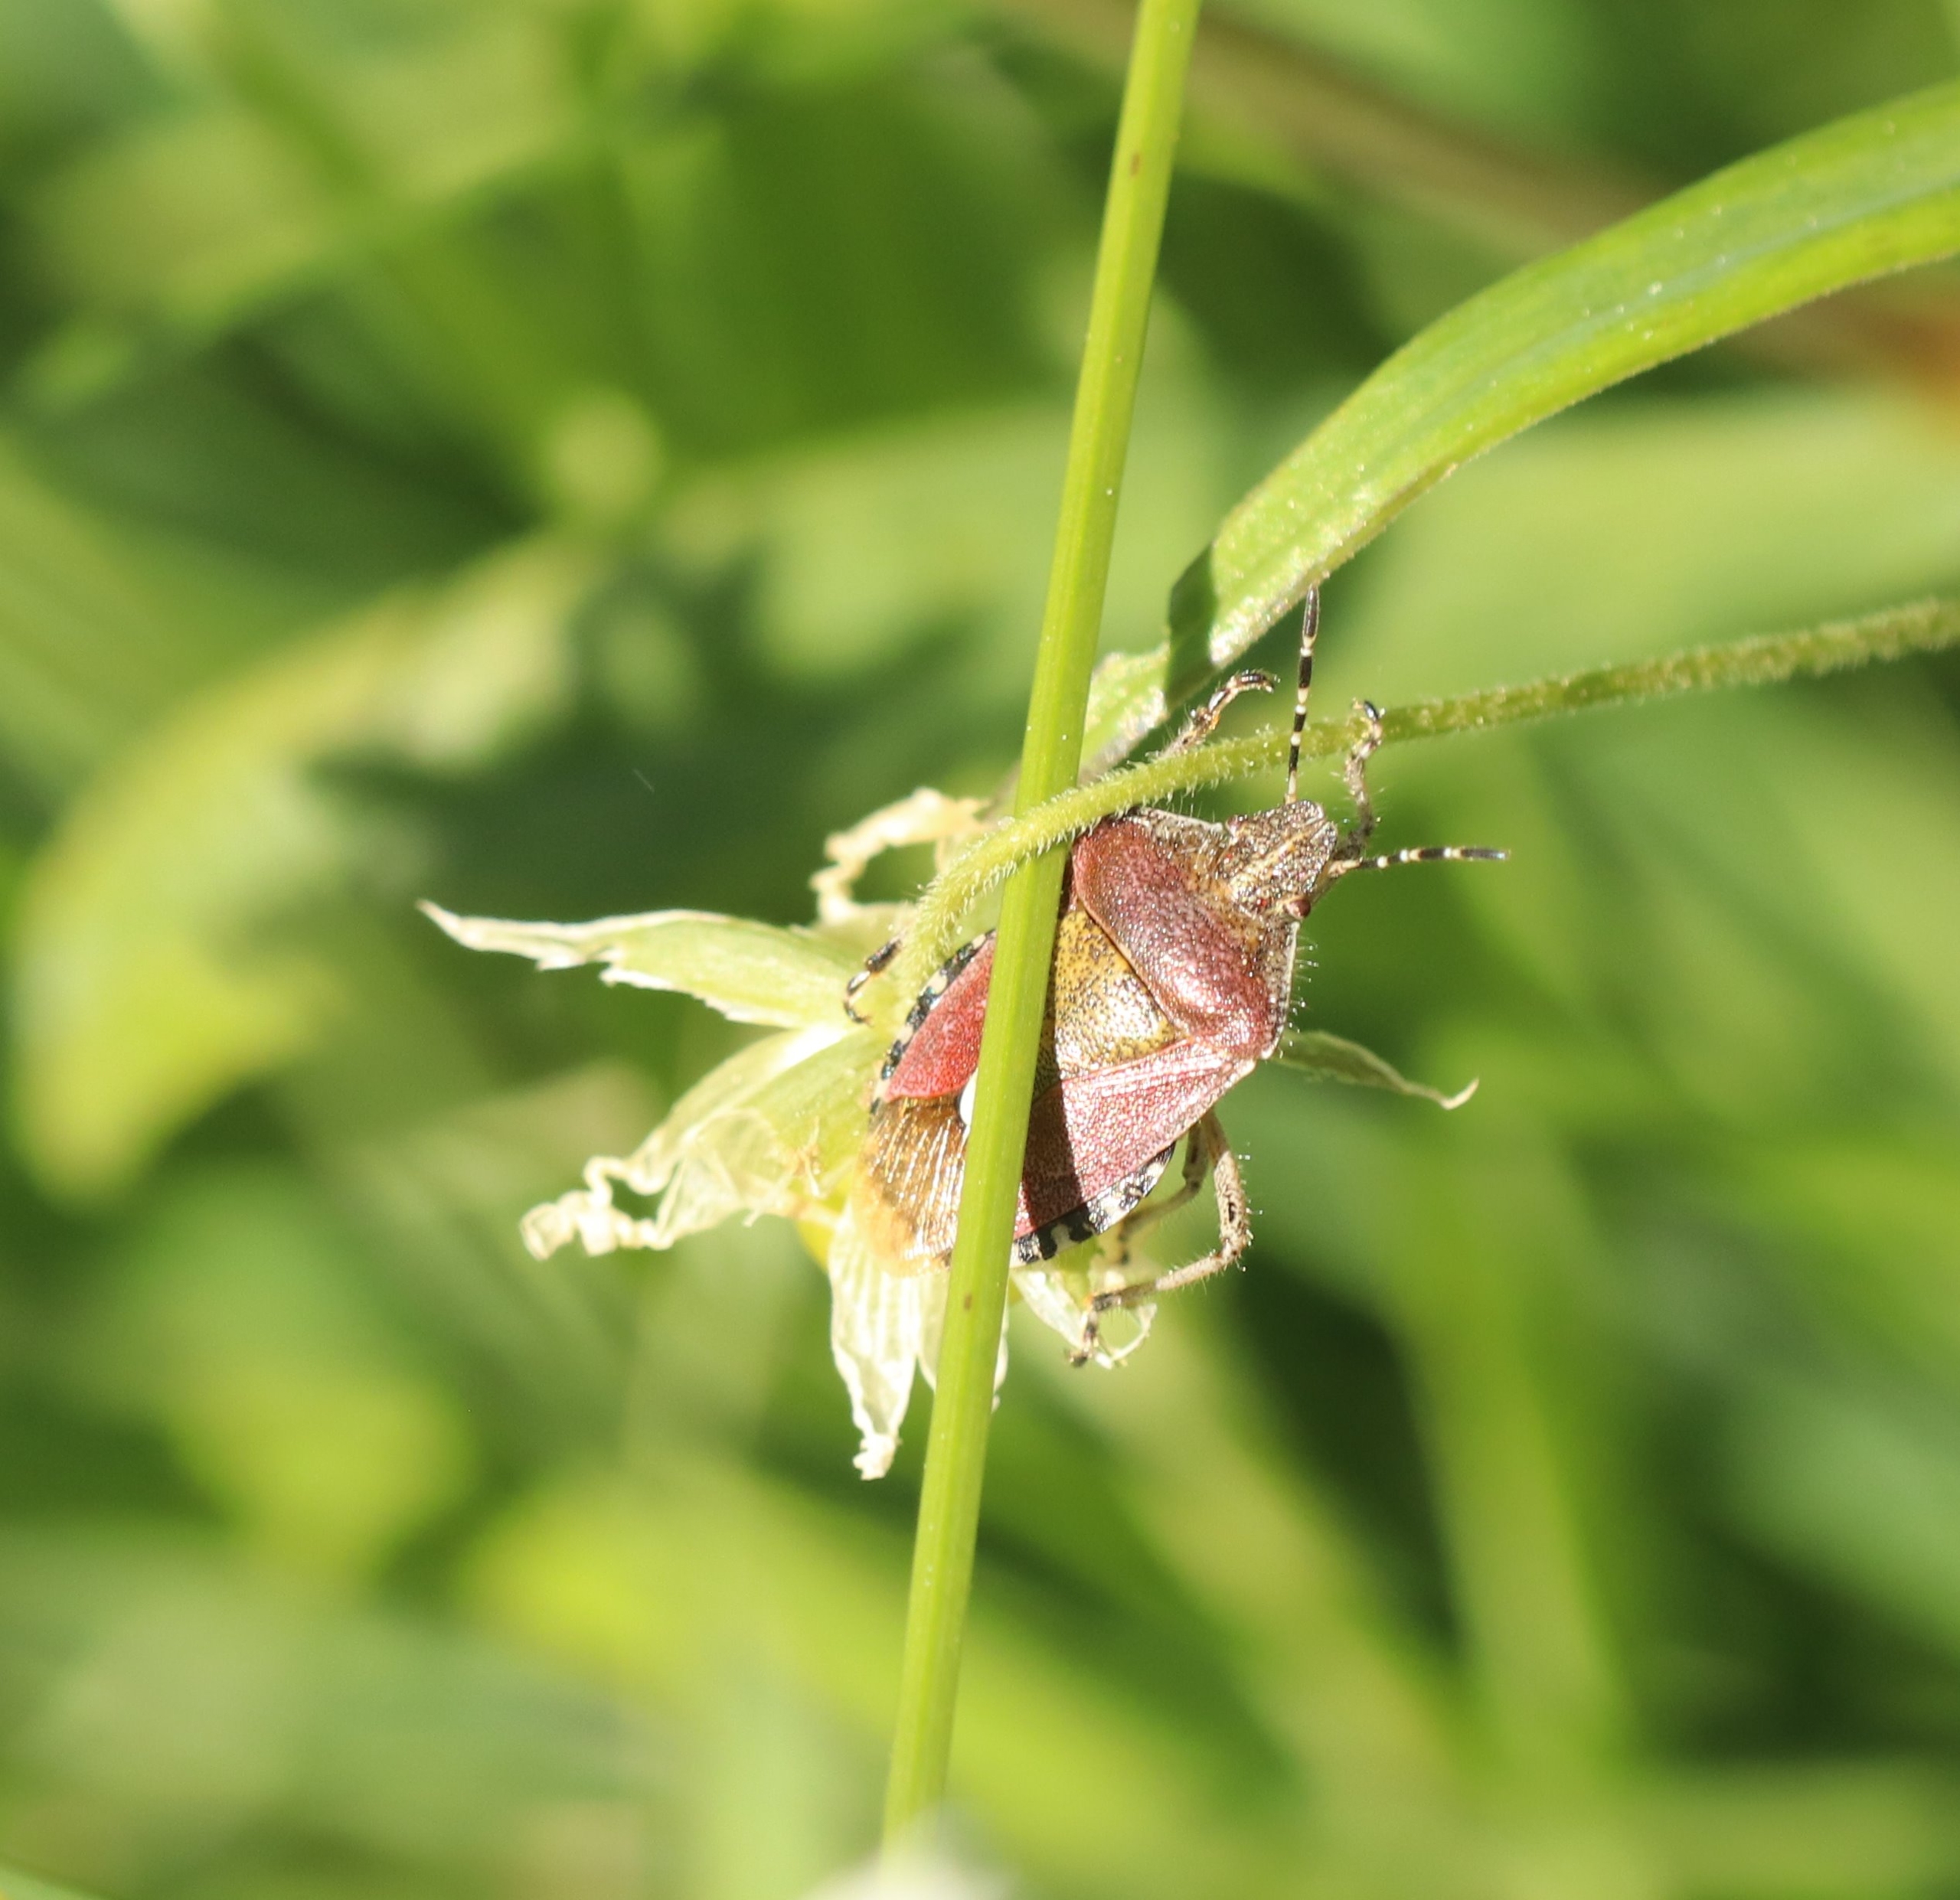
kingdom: Animalia
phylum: Arthropoda
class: Insecta
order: Hemiptera
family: Pentatomidae
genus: Dolycoris
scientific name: Dolycoris baccarum
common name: Almindelig bærtæge
